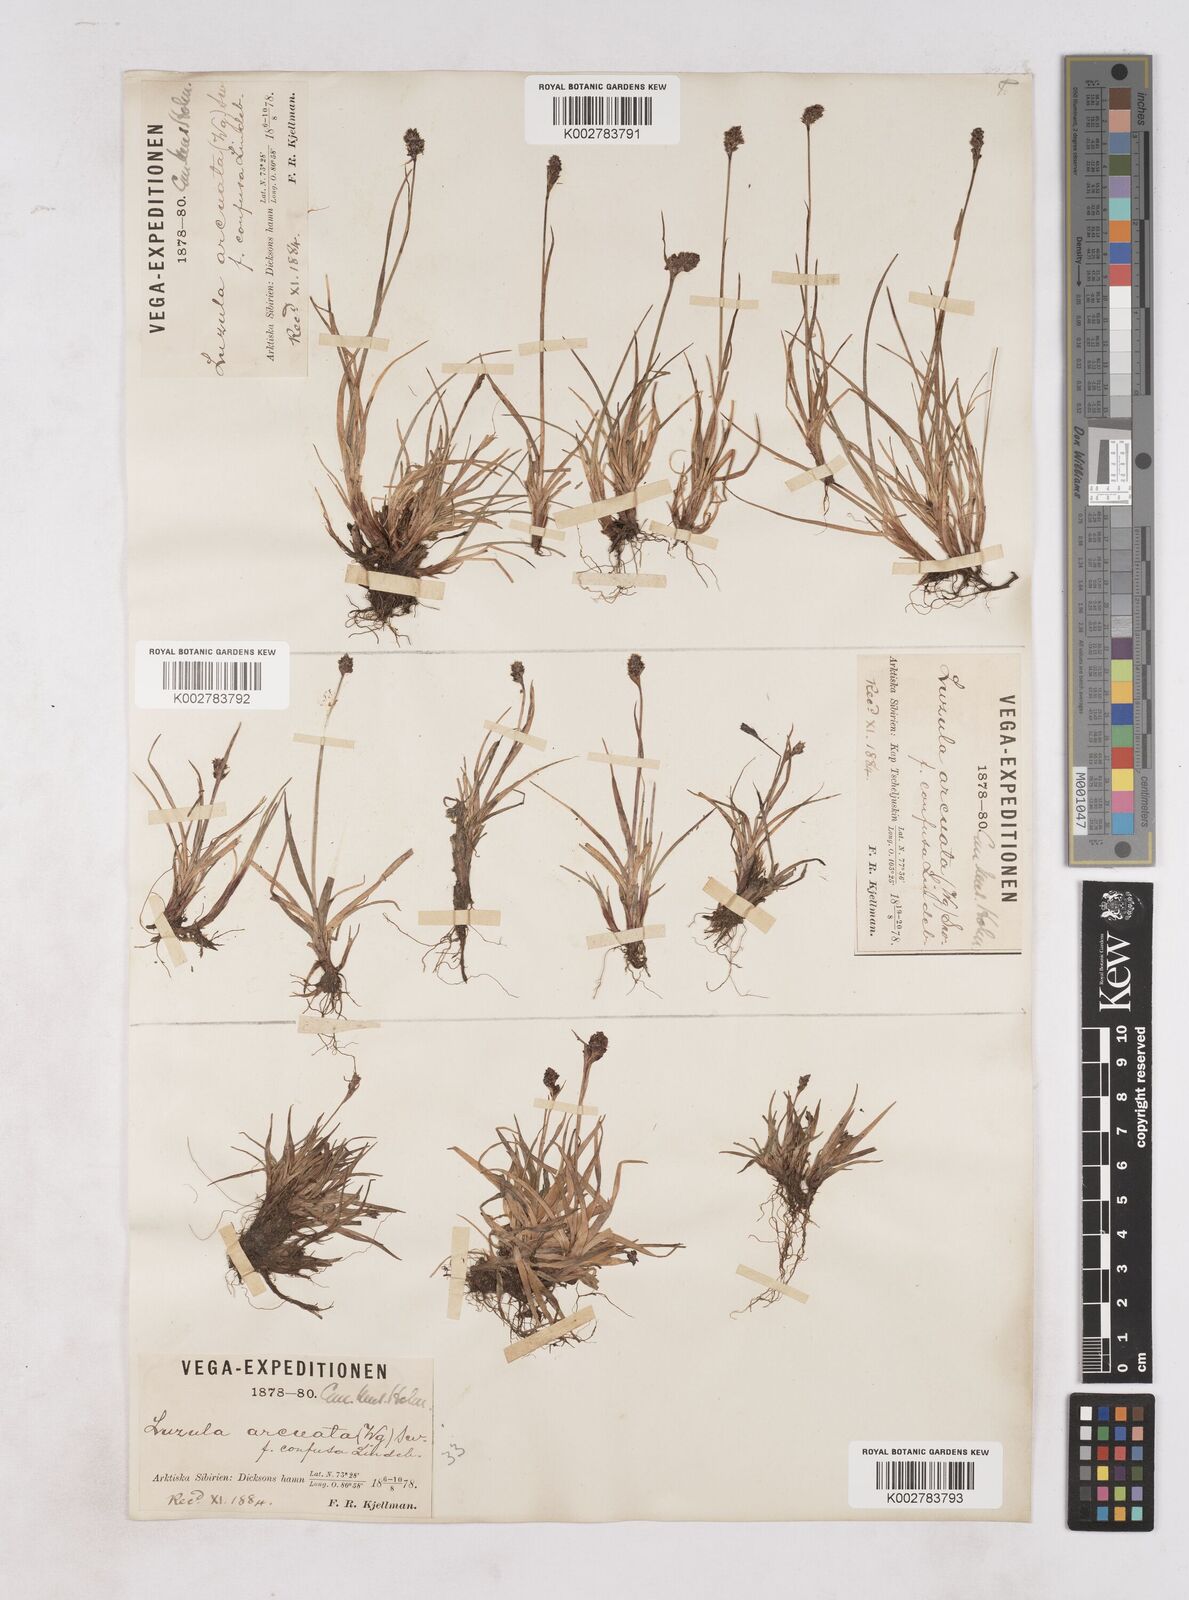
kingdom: Plantae
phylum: Tracheophyta
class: Liliopsida
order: Poales
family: Juncaceae
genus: Luzula
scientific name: Luzula nivalis
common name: Arctic woodrush
